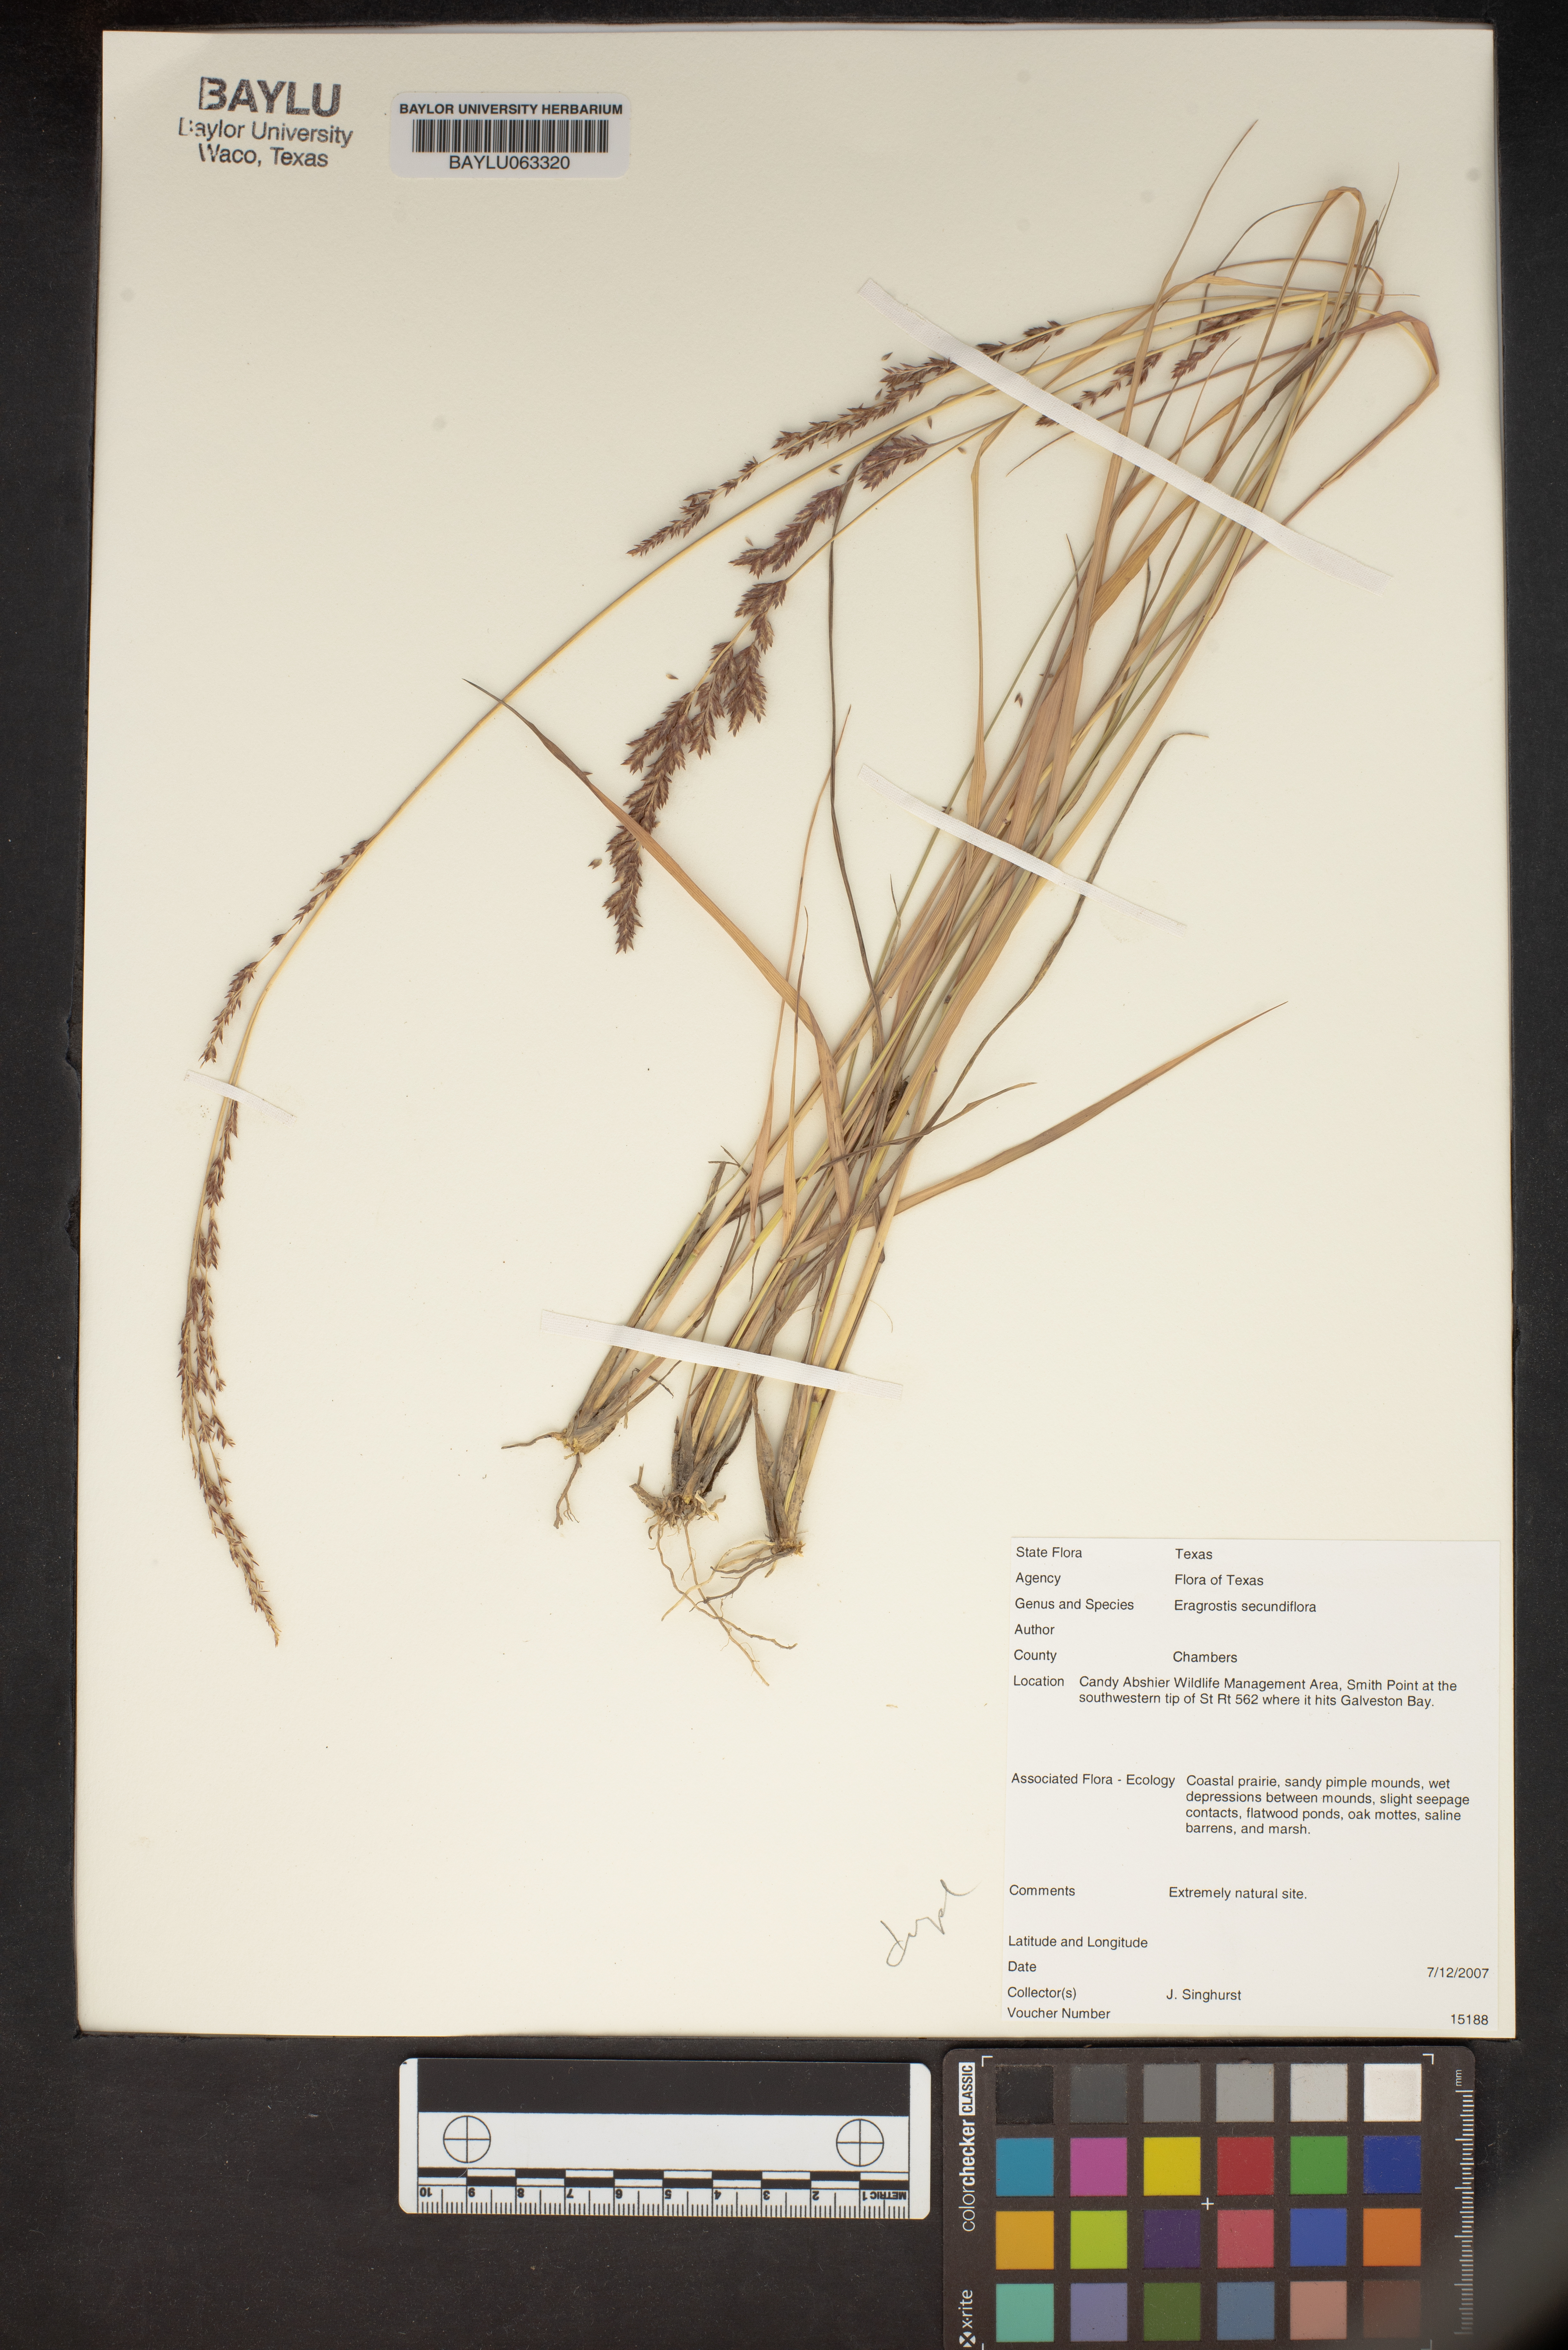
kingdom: Plantae
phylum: Tracheophyta
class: Liliopsida
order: Poales
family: Poaceae
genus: Eragrostis
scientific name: Eragrostis secundiflora
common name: Red love grass
